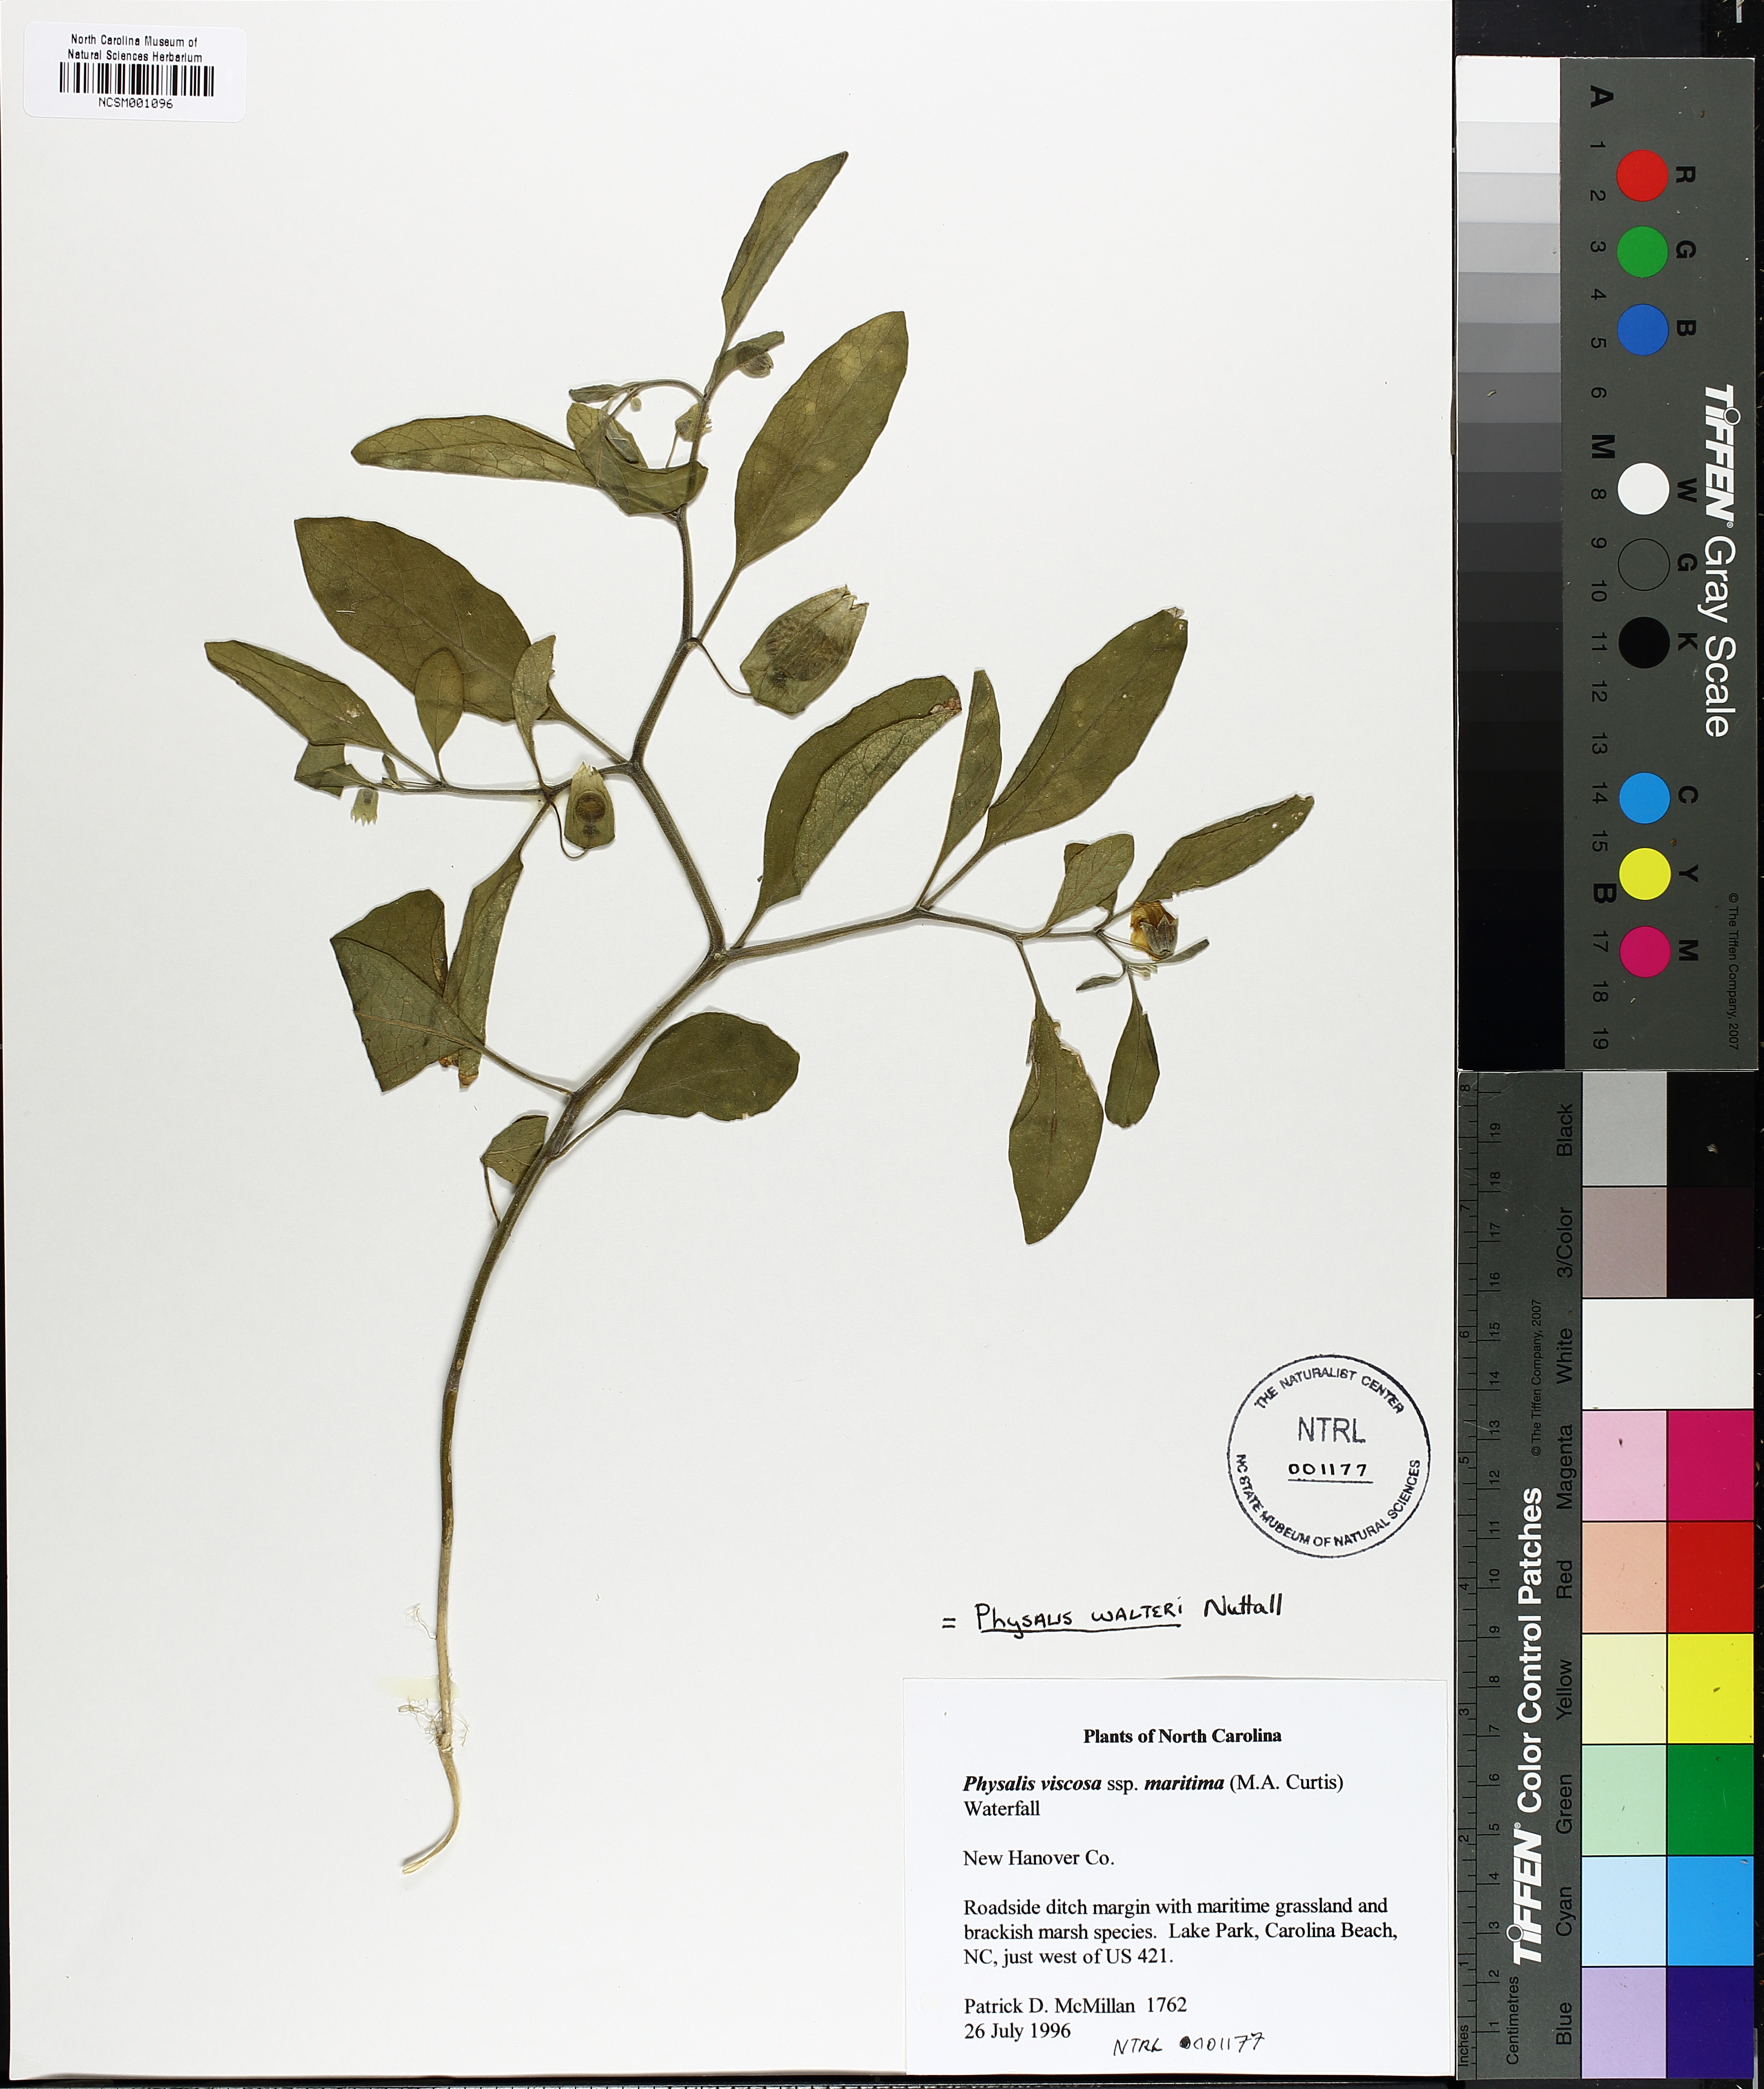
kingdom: Plantae
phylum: Tracheophyta
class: Magnoliopsida
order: Solanales
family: Solanaceae
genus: Physalis
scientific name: Physalis walteri
